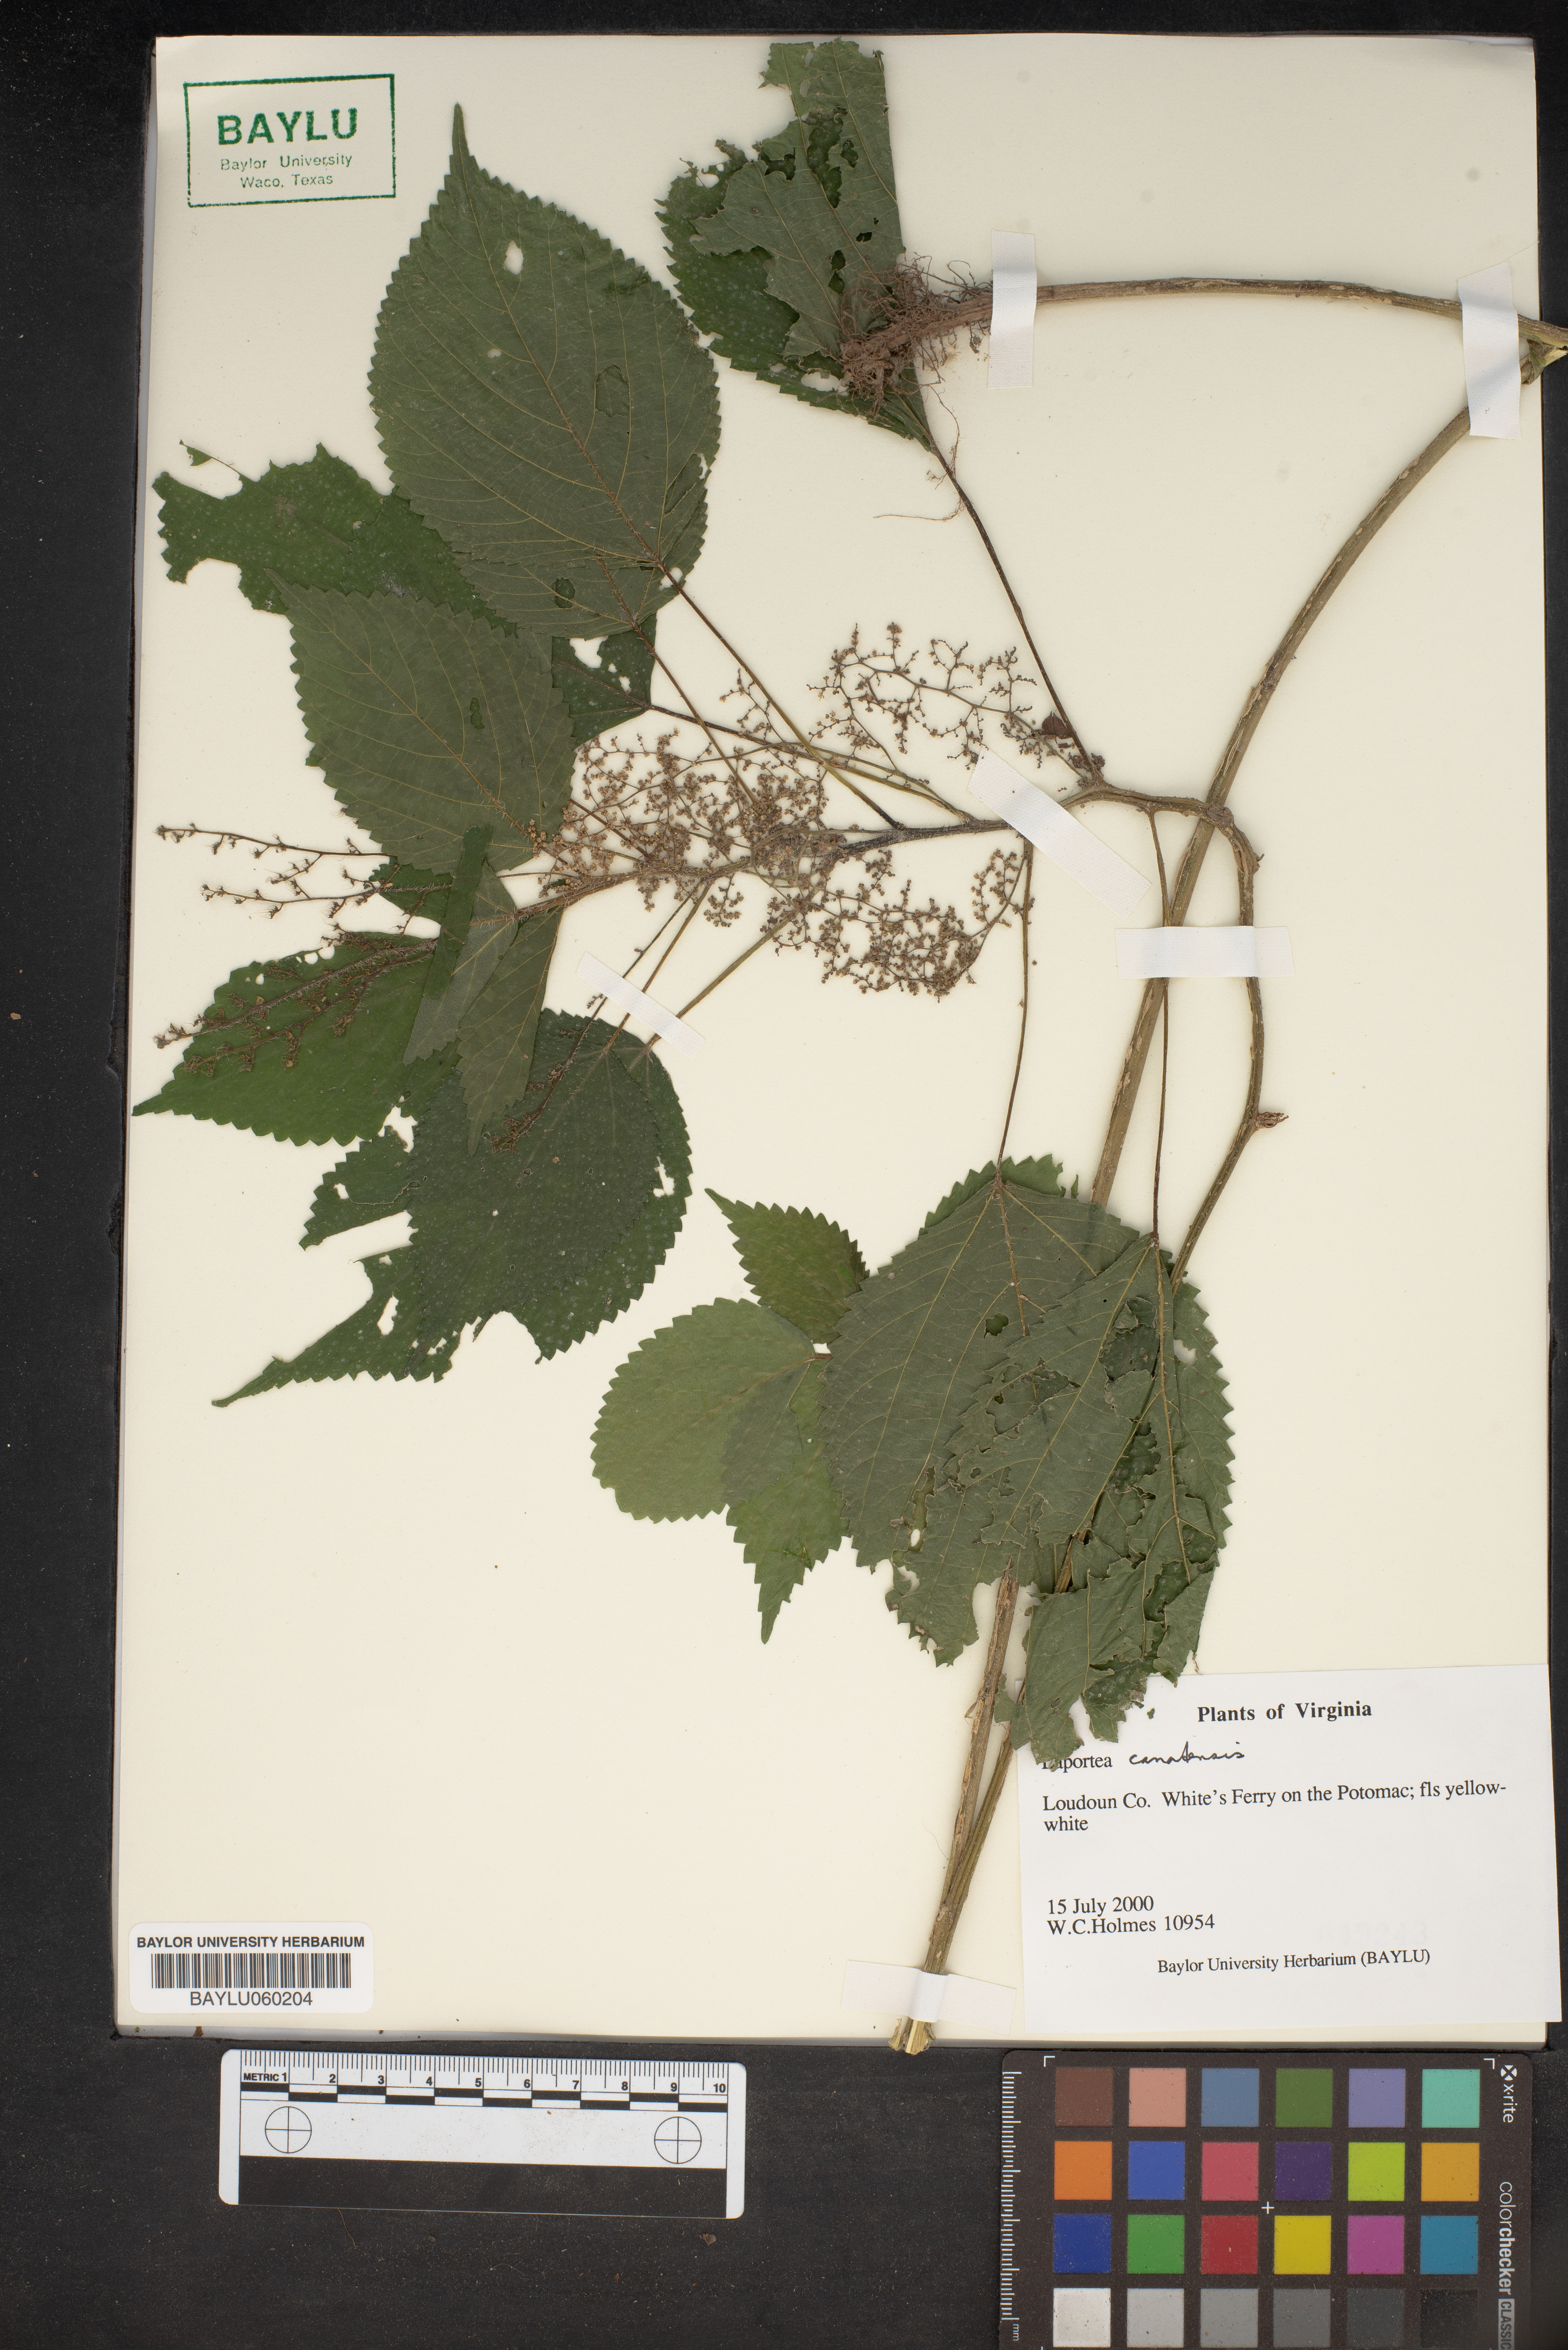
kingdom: Plantae
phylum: Tracheophyta
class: Magnoliopsida
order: Rosales
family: Urticaceae
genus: Laportea
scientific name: Laportea canadensis
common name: Canada nettle
